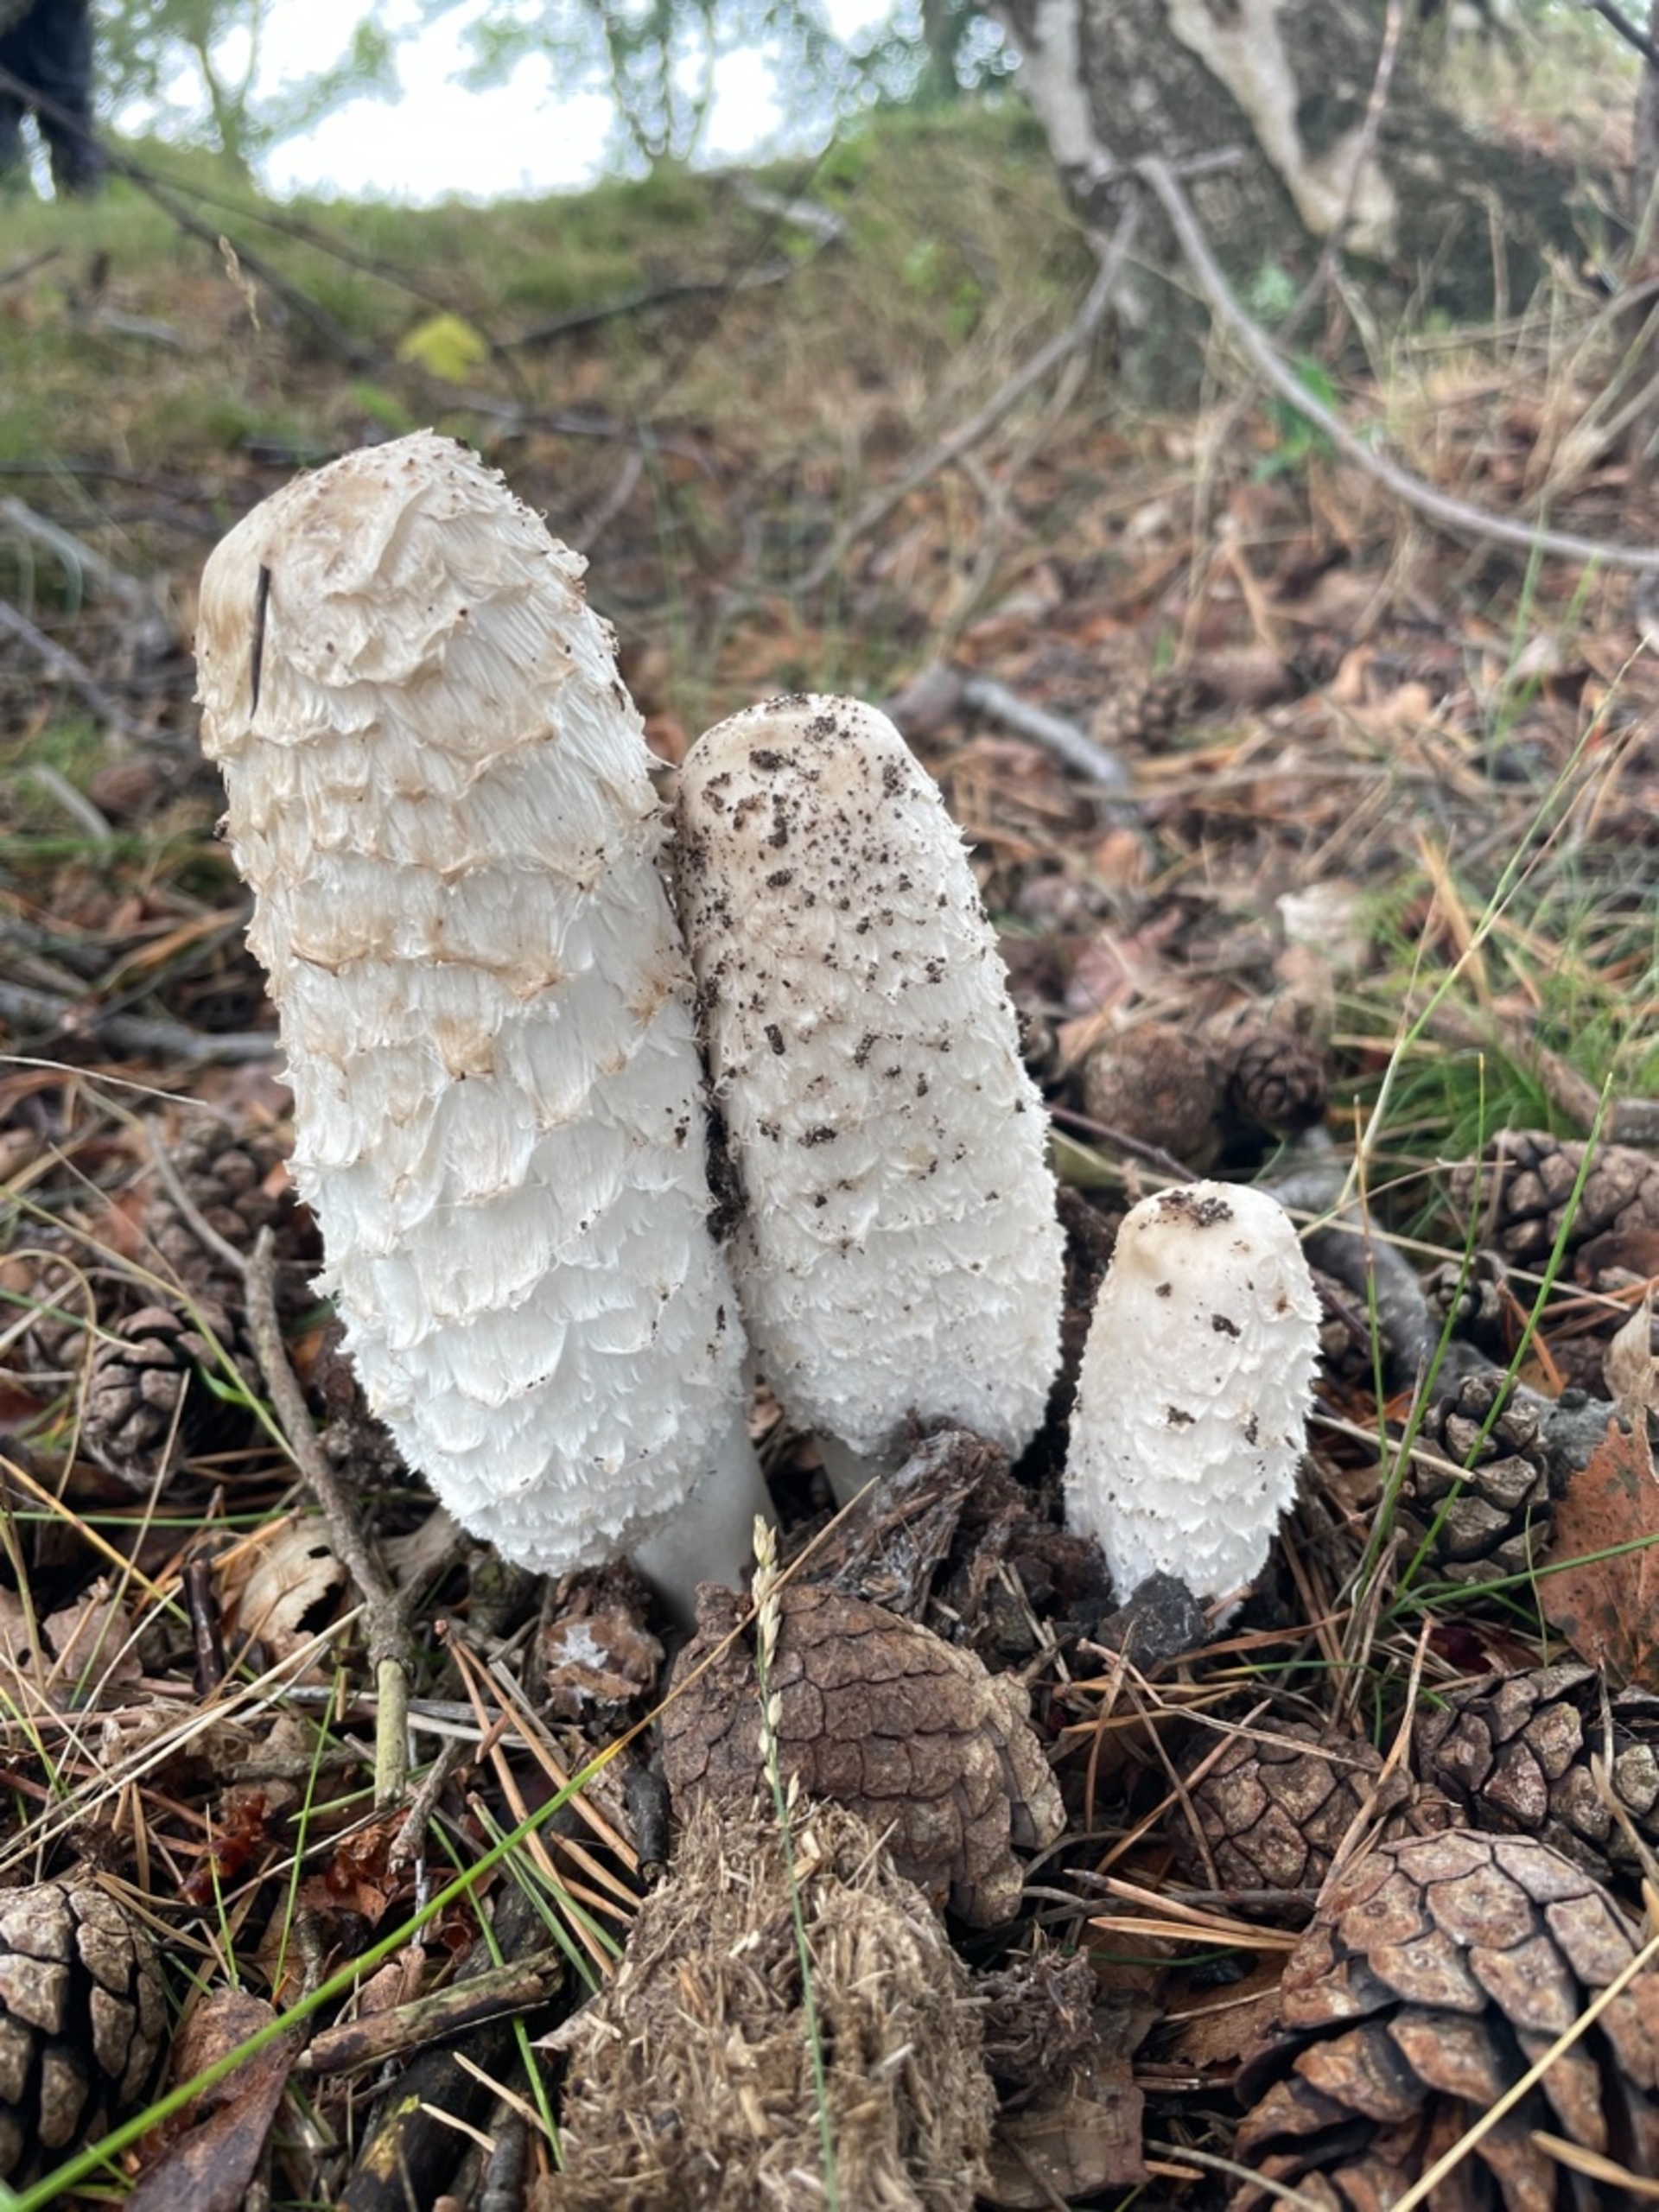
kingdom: Fungi
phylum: Basidiomycota
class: Agaricomycetes
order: Agaricales
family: Agaricaceae
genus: Coprinus
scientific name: Coprinus comatus
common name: Stor parykhat
